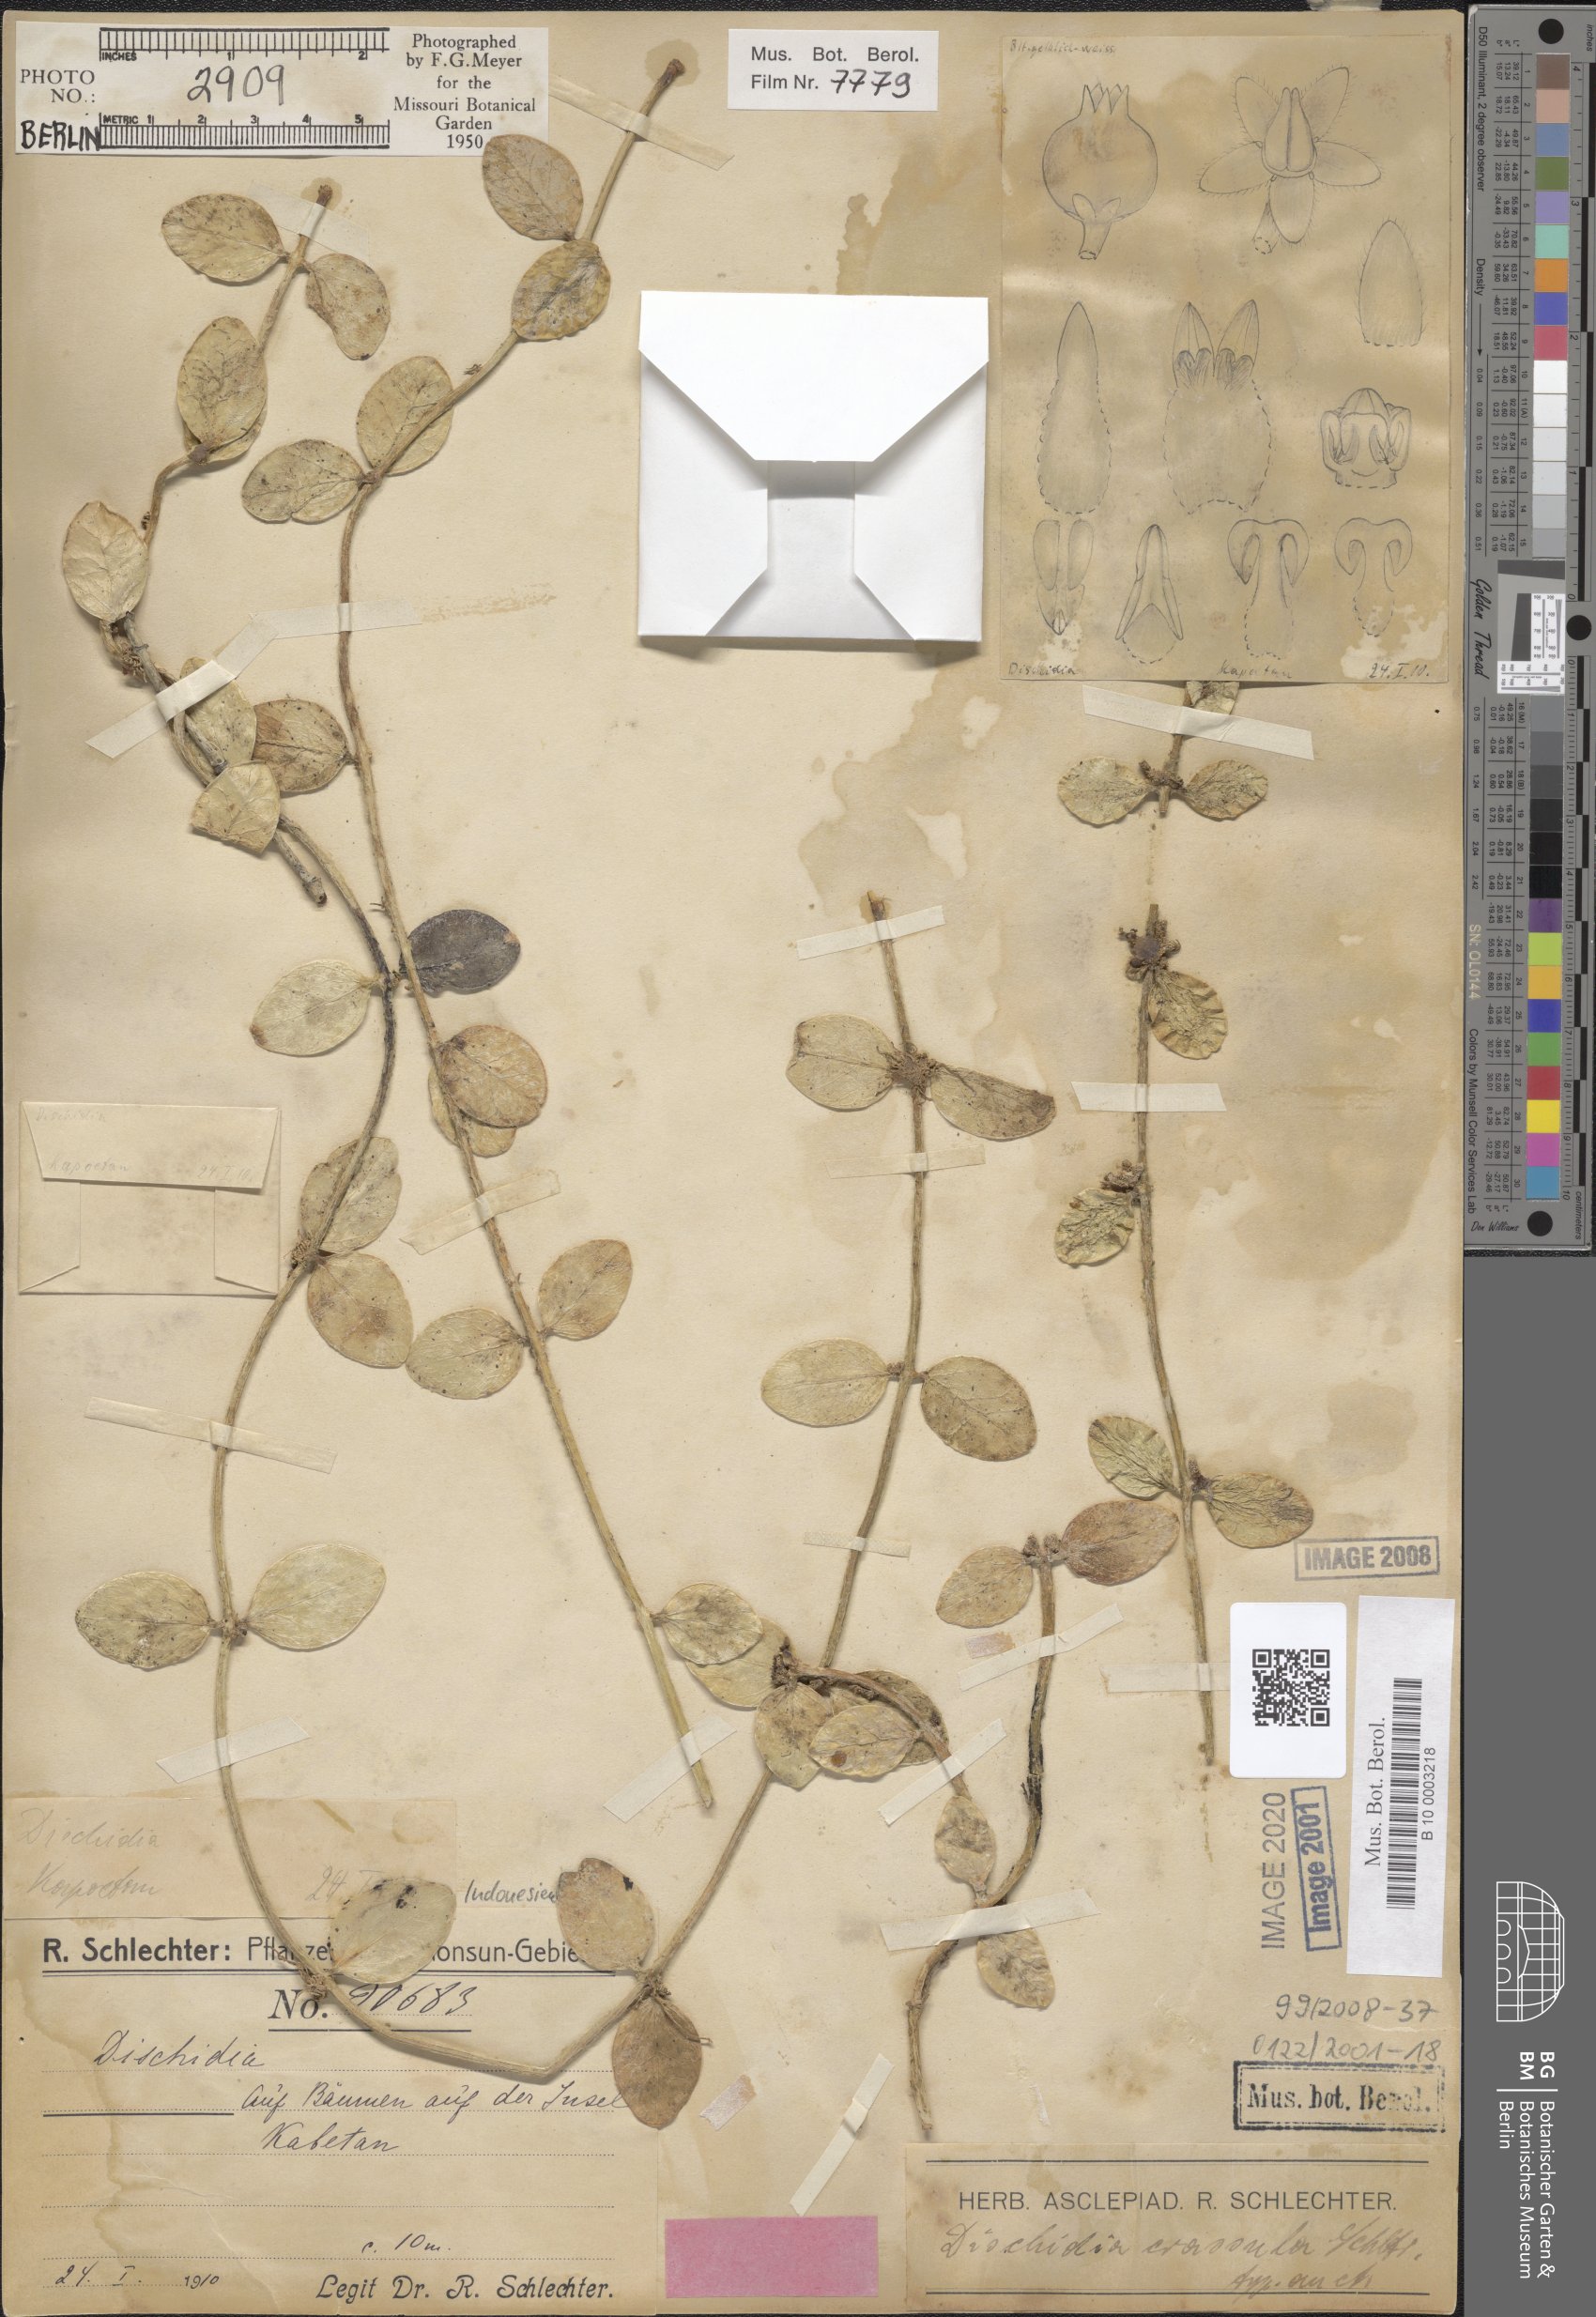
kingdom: Plantae
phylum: Tracheophyta
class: Magnoliopsida
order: Gentianales
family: Apocynaceae
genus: Dischidia
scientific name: Dischidia crassula
